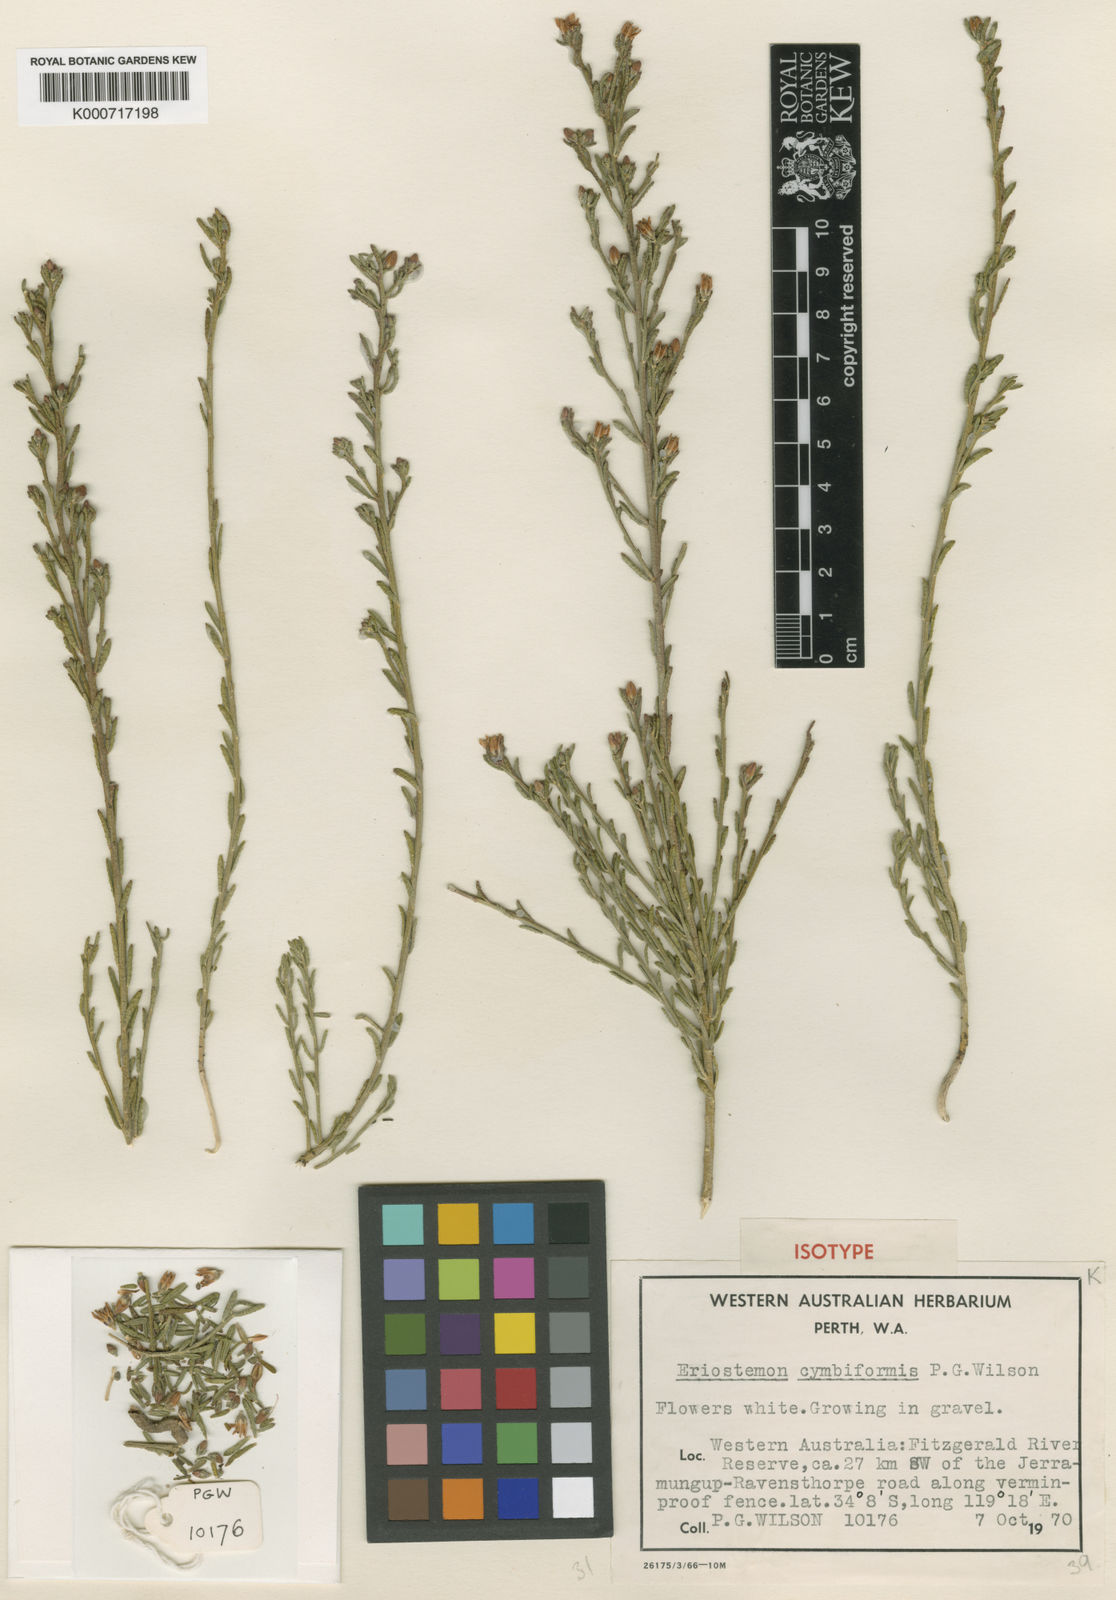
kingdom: Plantae
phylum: Tracheophyta
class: Magnoliopsida
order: Sapindales
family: Rutaceae
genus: Philotheca
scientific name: Philotheca cymbiformis
